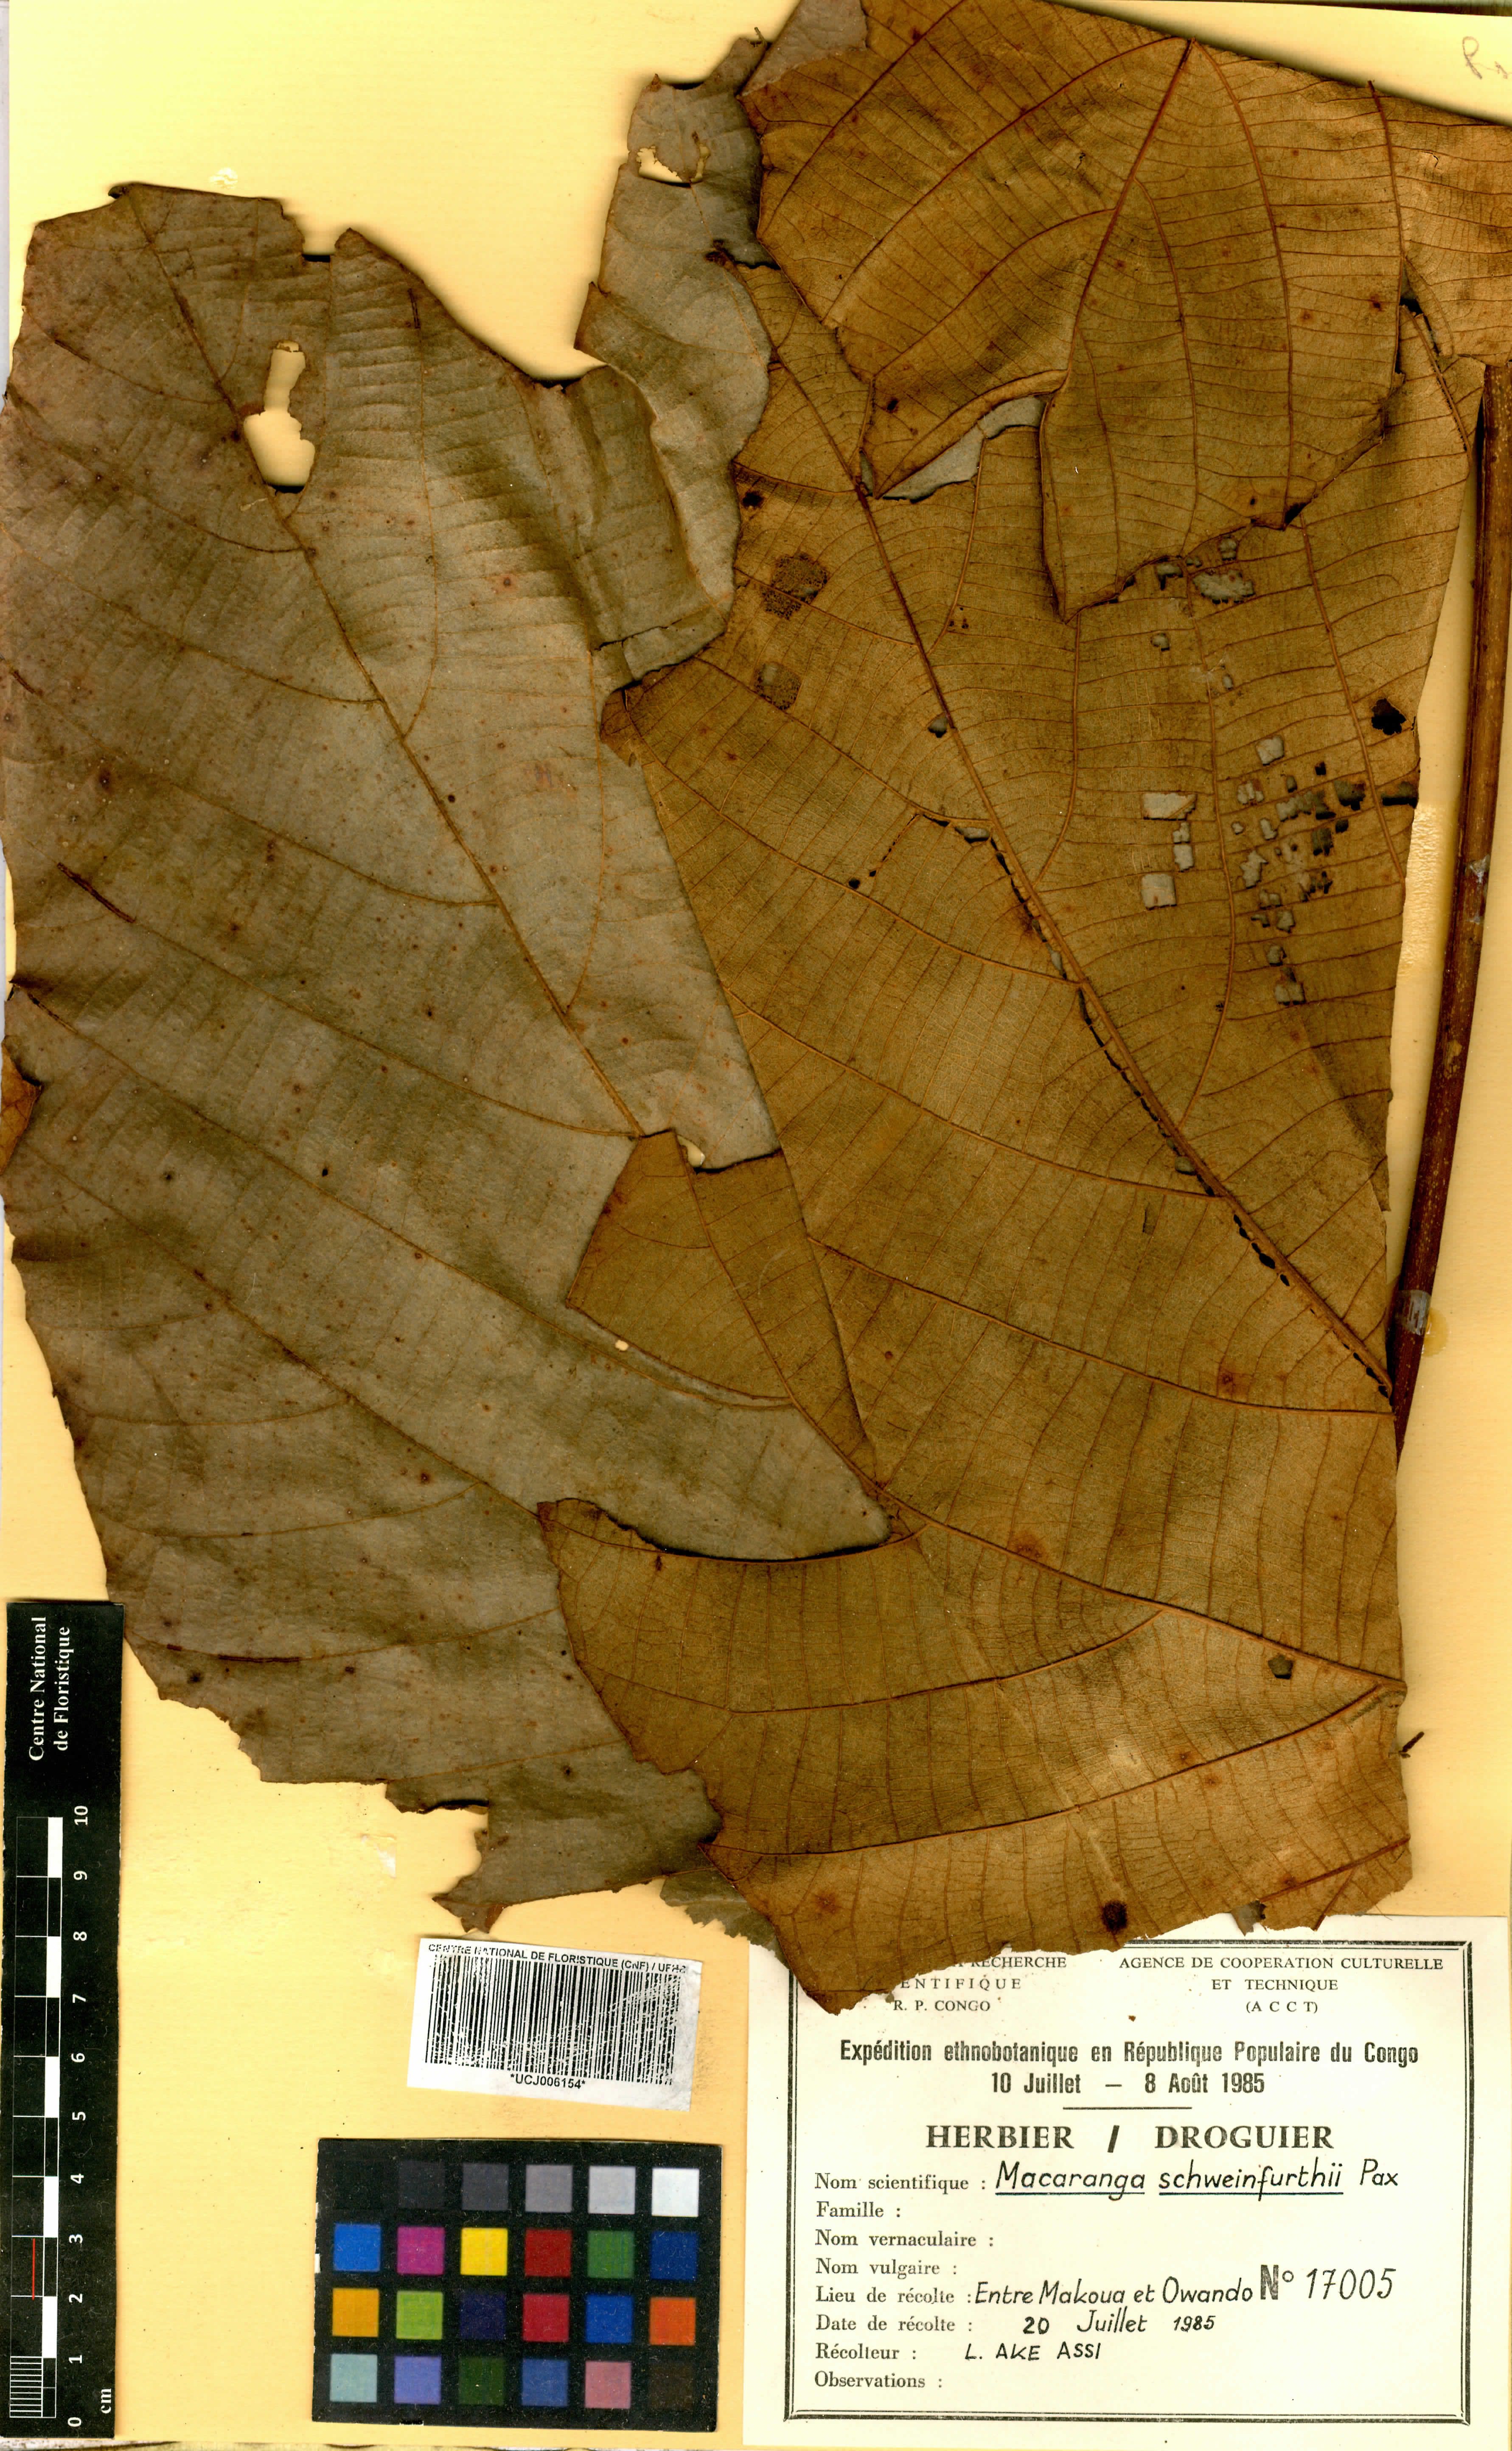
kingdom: Plantae
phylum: Tracheophyta
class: Magnoliopsida
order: Malpighiales
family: Euphorbiaceae
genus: Macaranga
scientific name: Macaranga schweinfurthii
